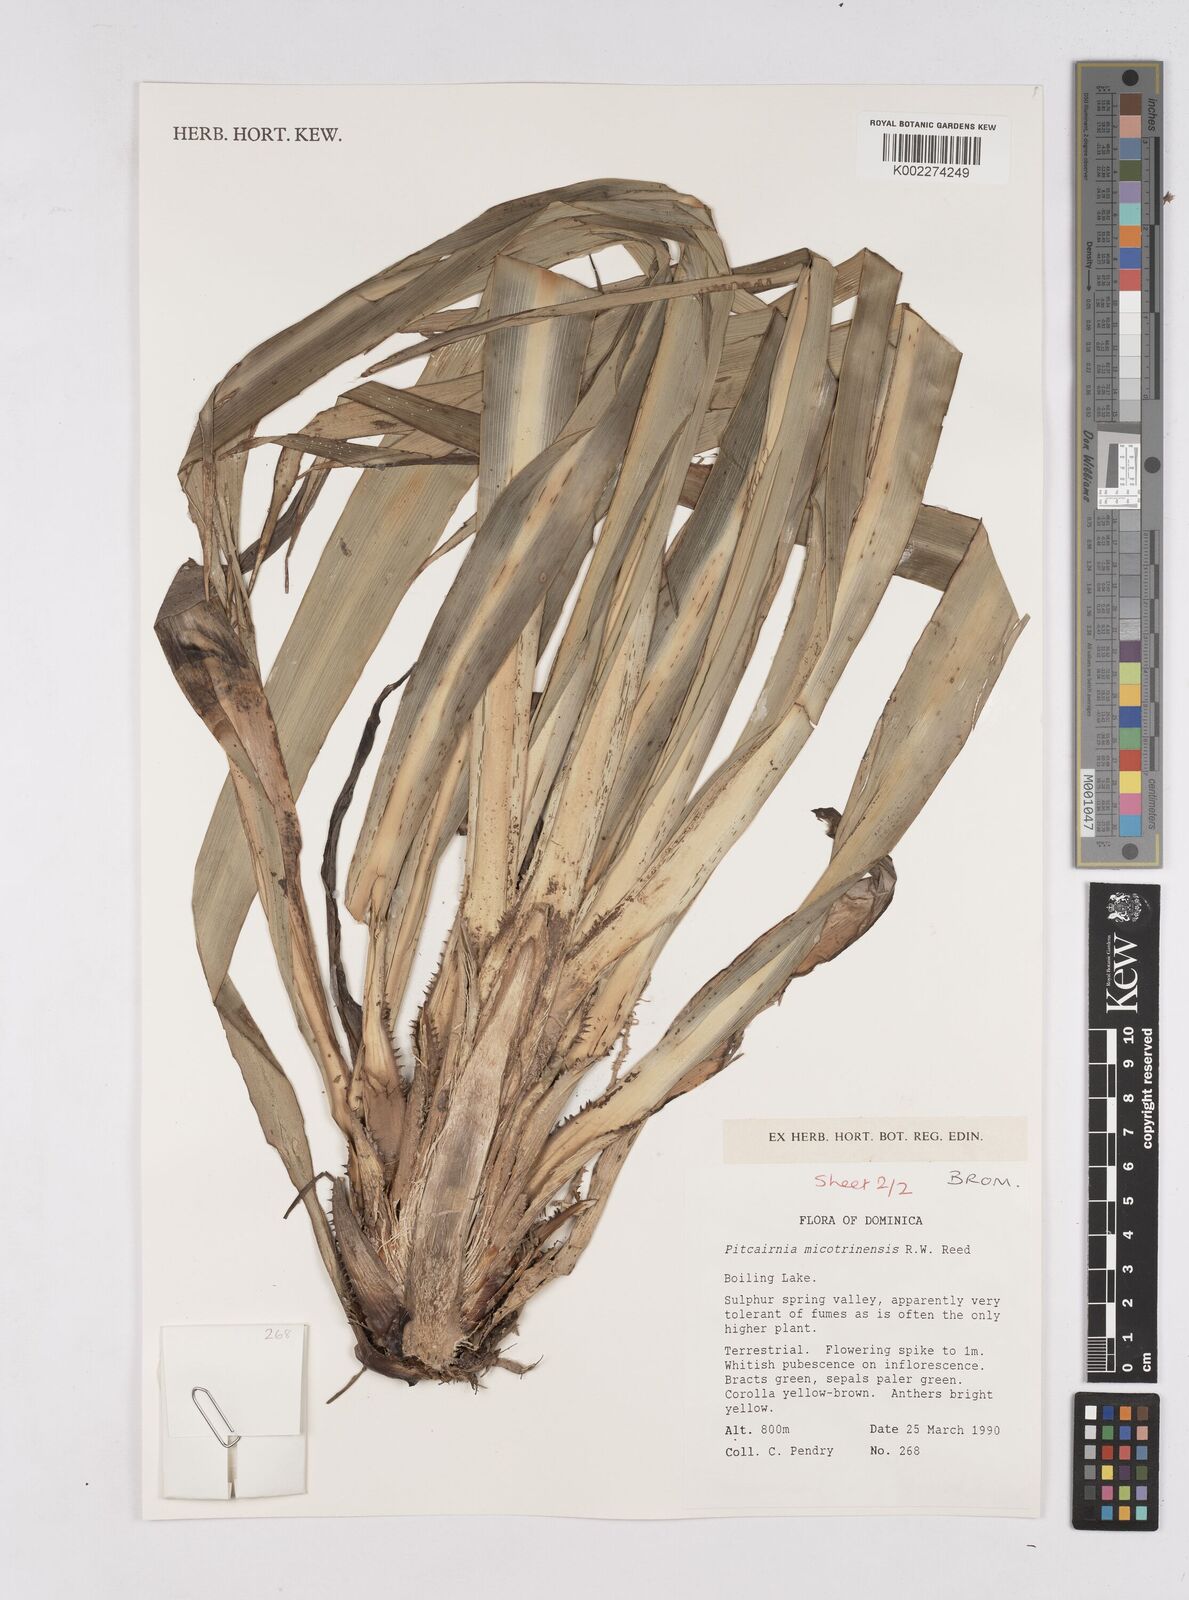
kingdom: Plantae
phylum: Tracheophyta
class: Liliopsida
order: Poales
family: Bromeliaceae
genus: Pitcairnia
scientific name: Pitcairnia micotrinensis
